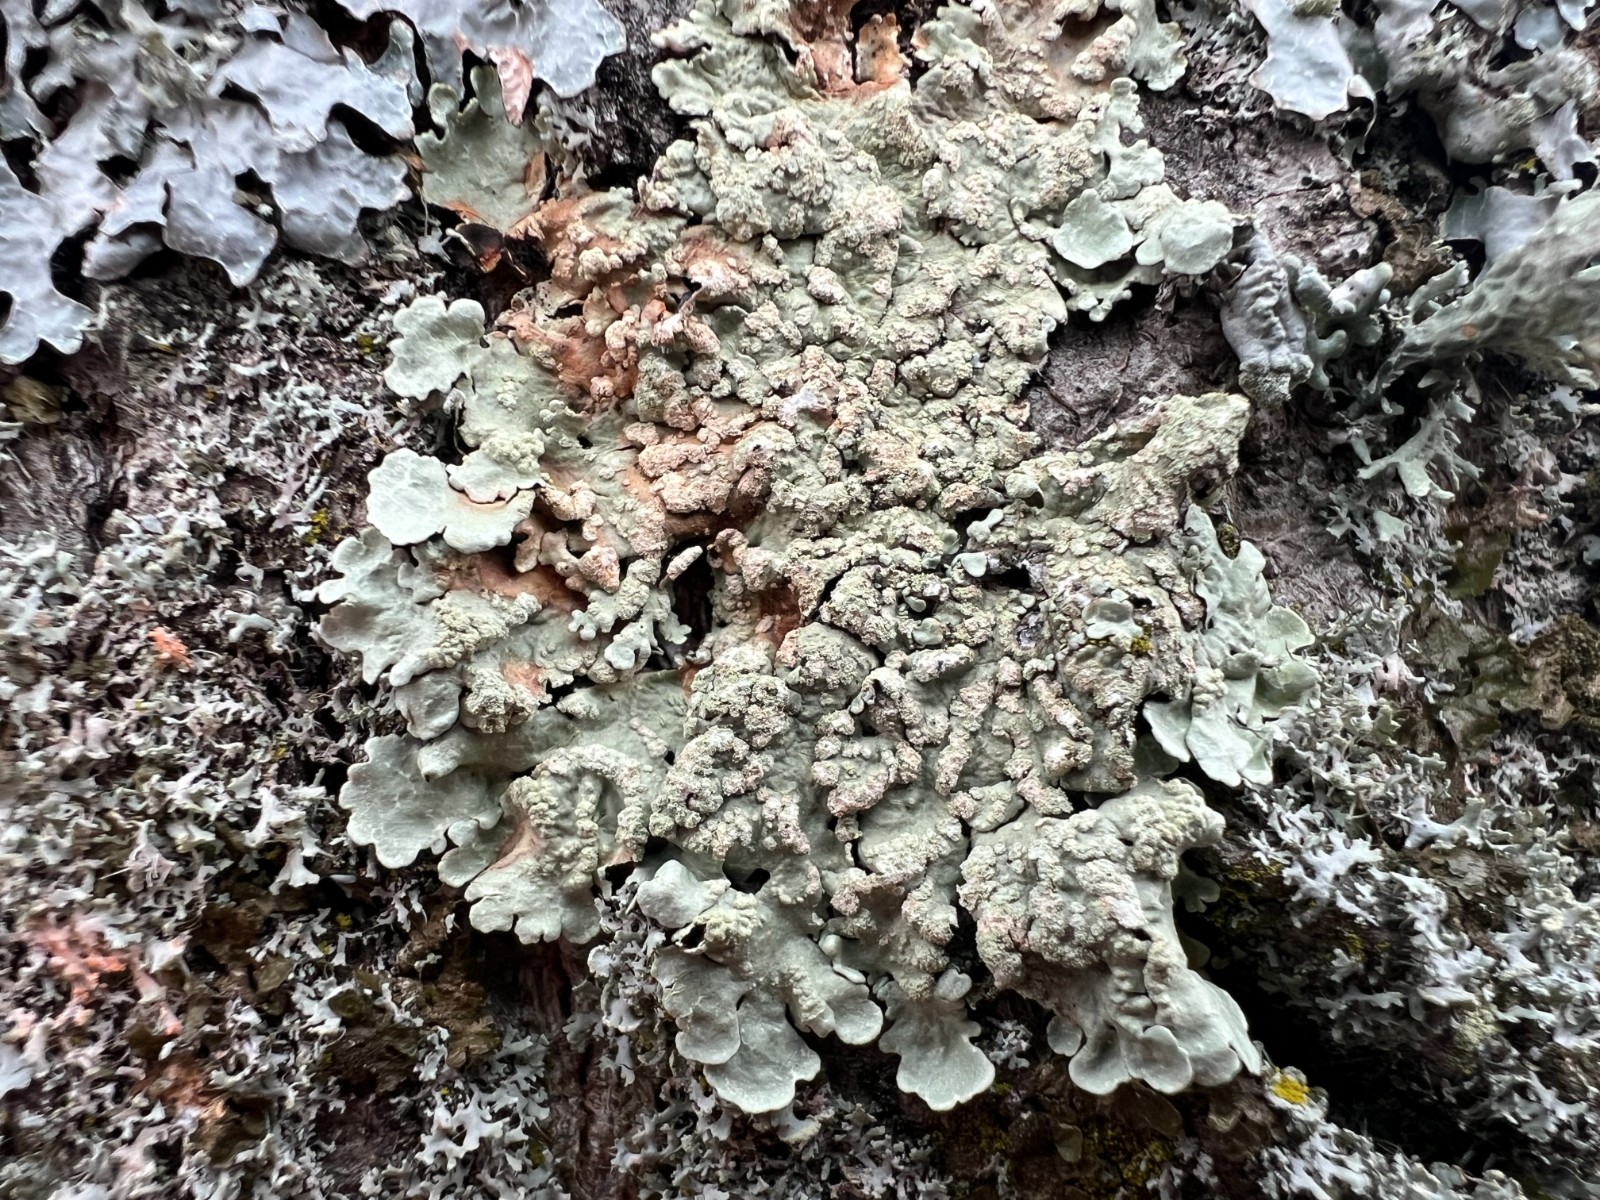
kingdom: Fungi
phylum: Ascomycota
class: Lecanoromycetes
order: Lecanorales
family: Parmeliaceae
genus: Flavoparmelia
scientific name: Flavoparmelia soredians
